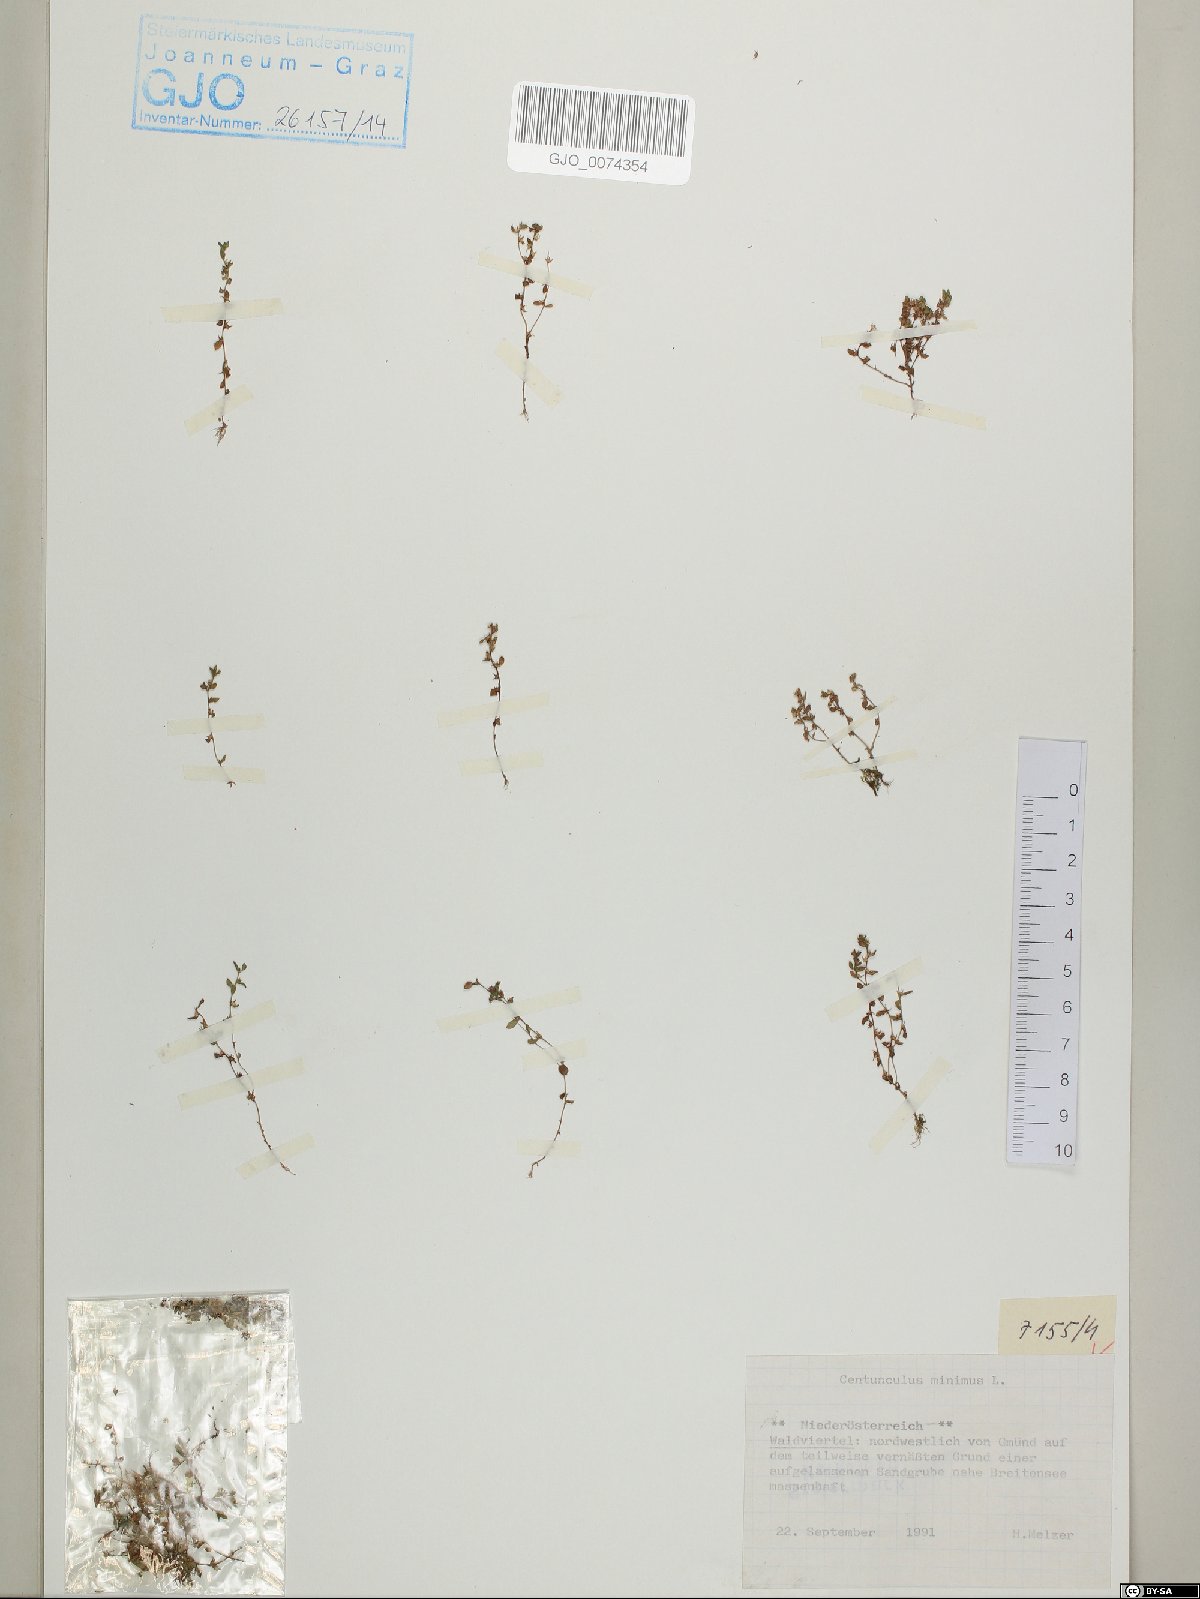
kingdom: Plantae
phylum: Tracheophyta
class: Magnoliopsida
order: Ericales
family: Primulaceae
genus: Lysimachia
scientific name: Lysimachia minima
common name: Chaffweed
